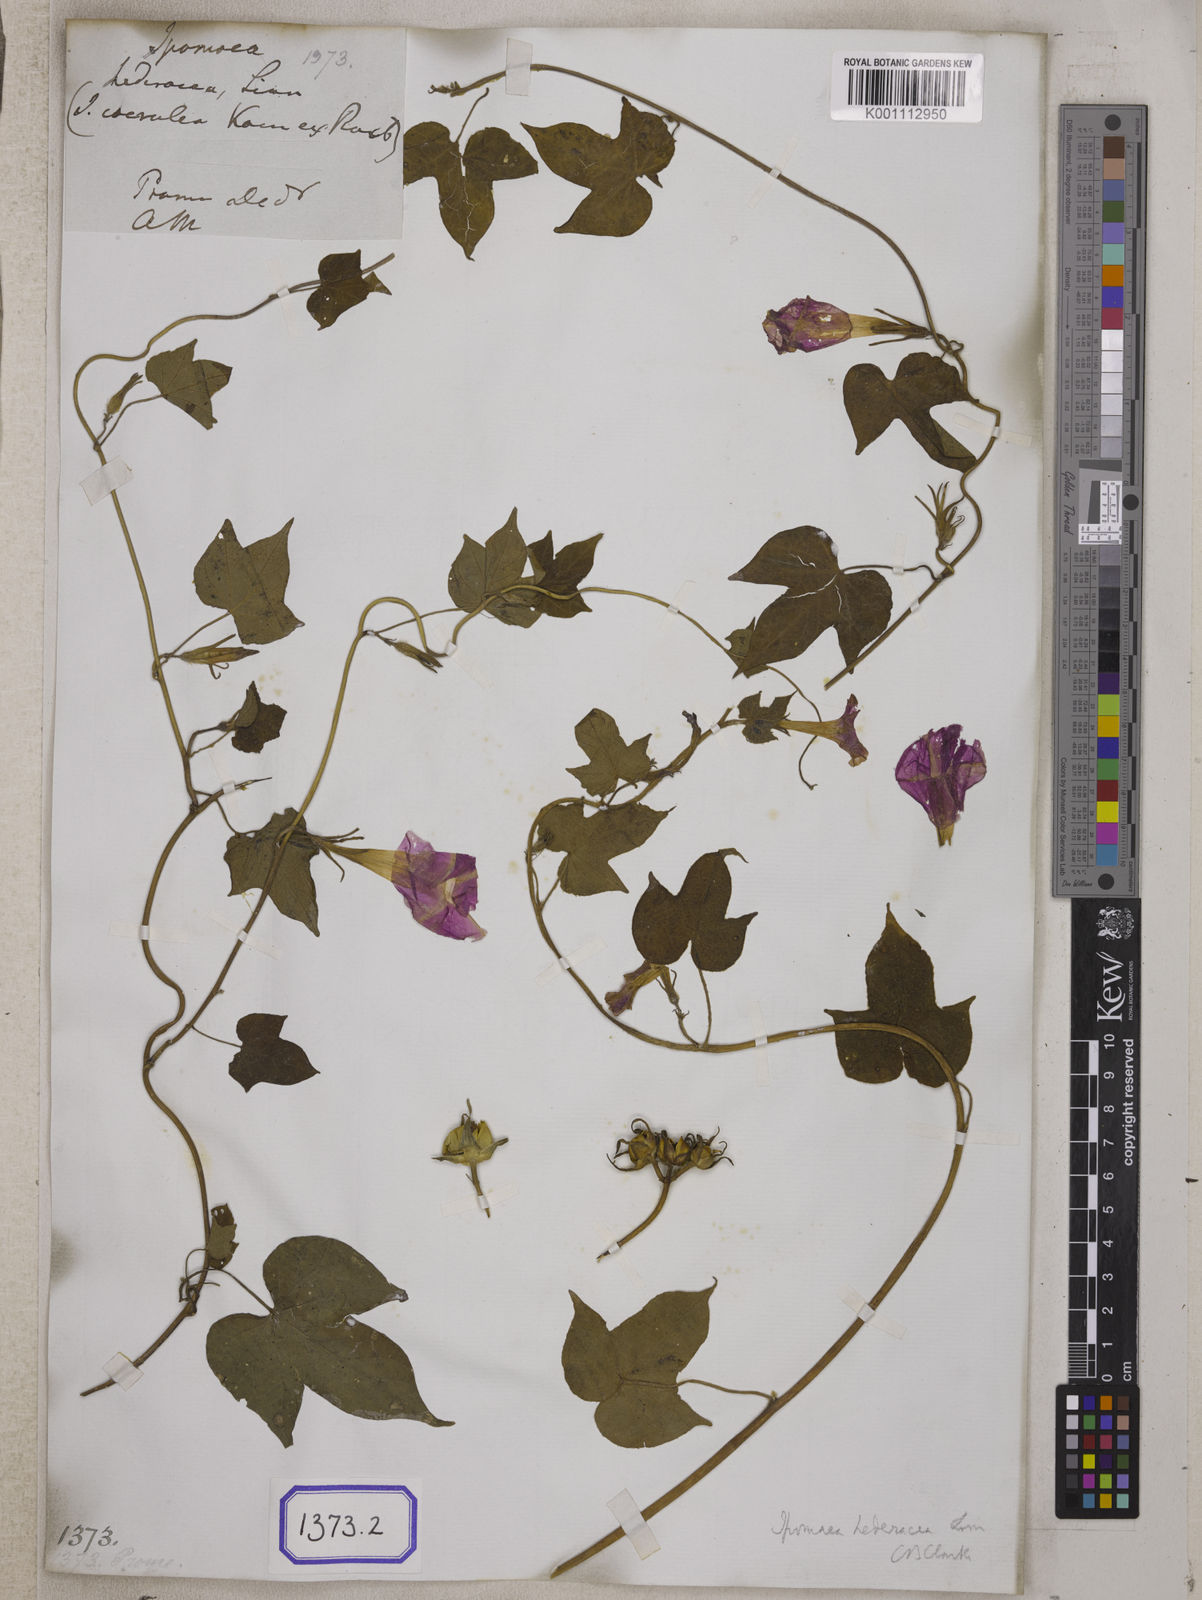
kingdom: Plantae
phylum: Tracheophyta
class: Magnoliopsida
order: Solanales
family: Convolvulaceae
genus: Ipomoea
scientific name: Ipomoea nil
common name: Japanese morning-glory
